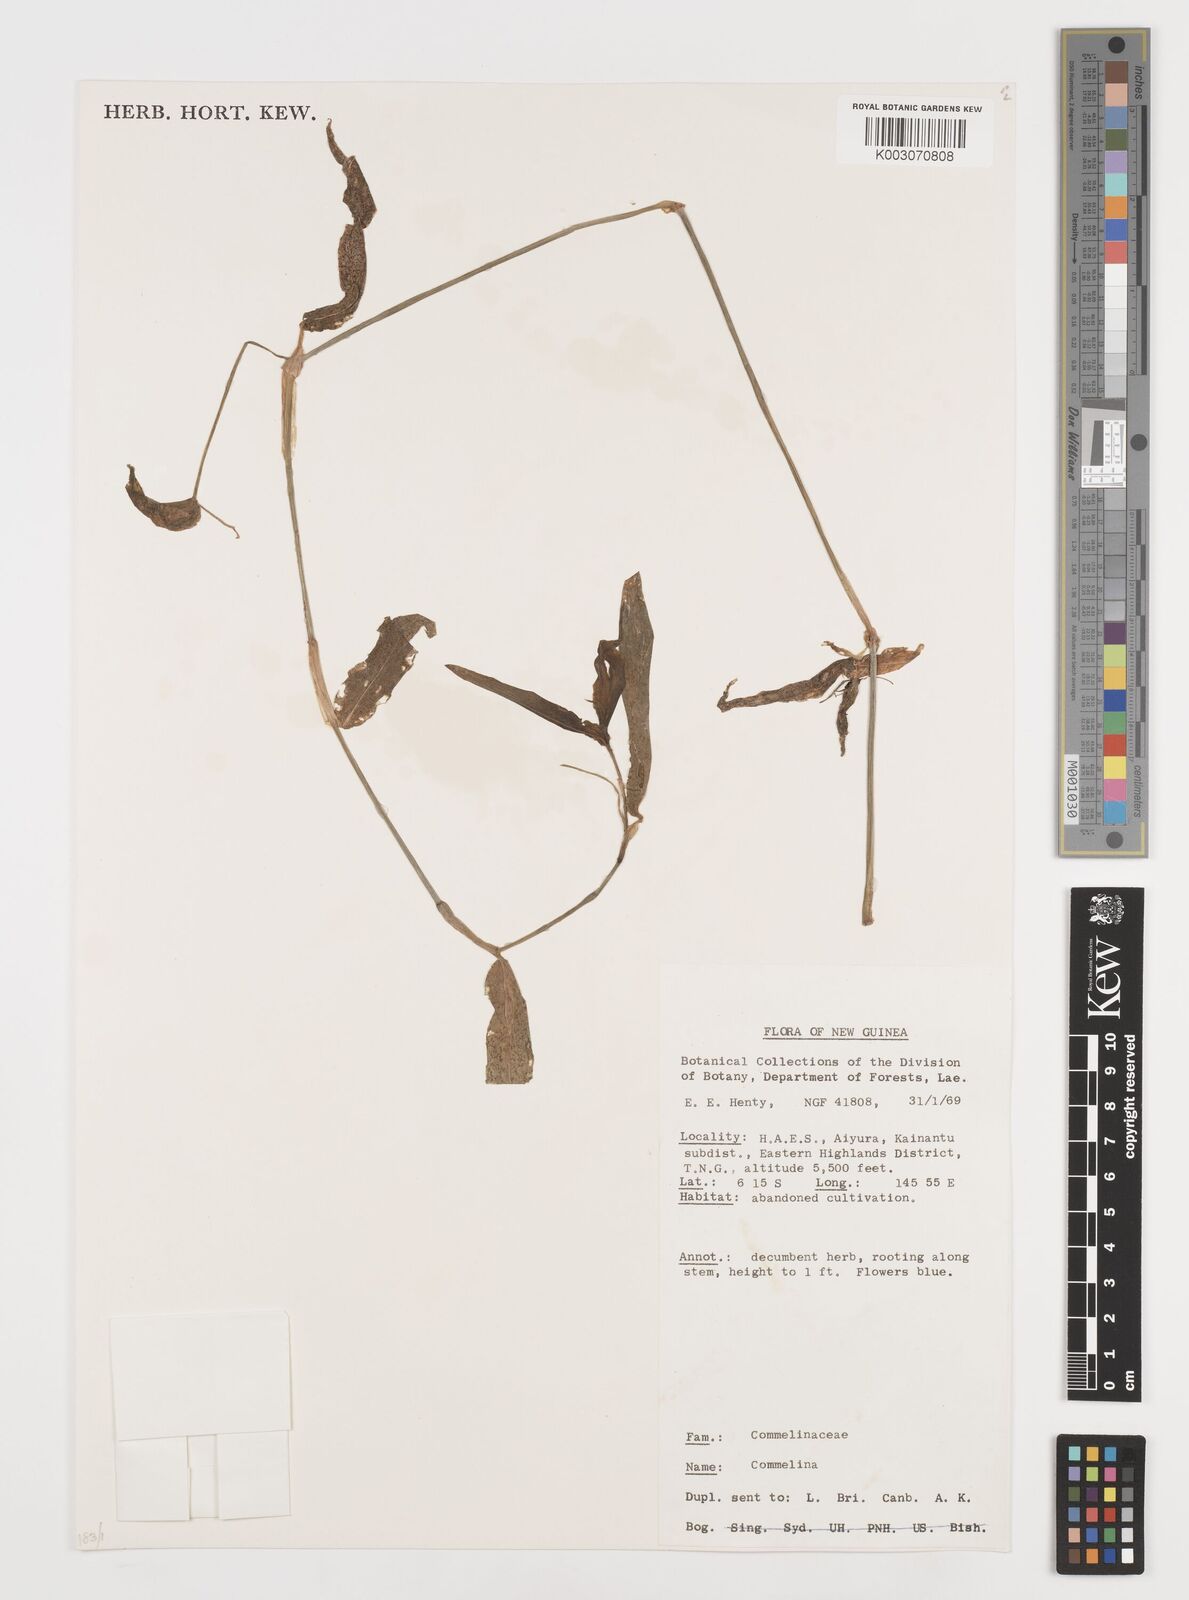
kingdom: Plantae
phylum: Tracheophyta
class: Liliopsida
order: Commelinales
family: Commelinaceae
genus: Commelina
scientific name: Commelina
